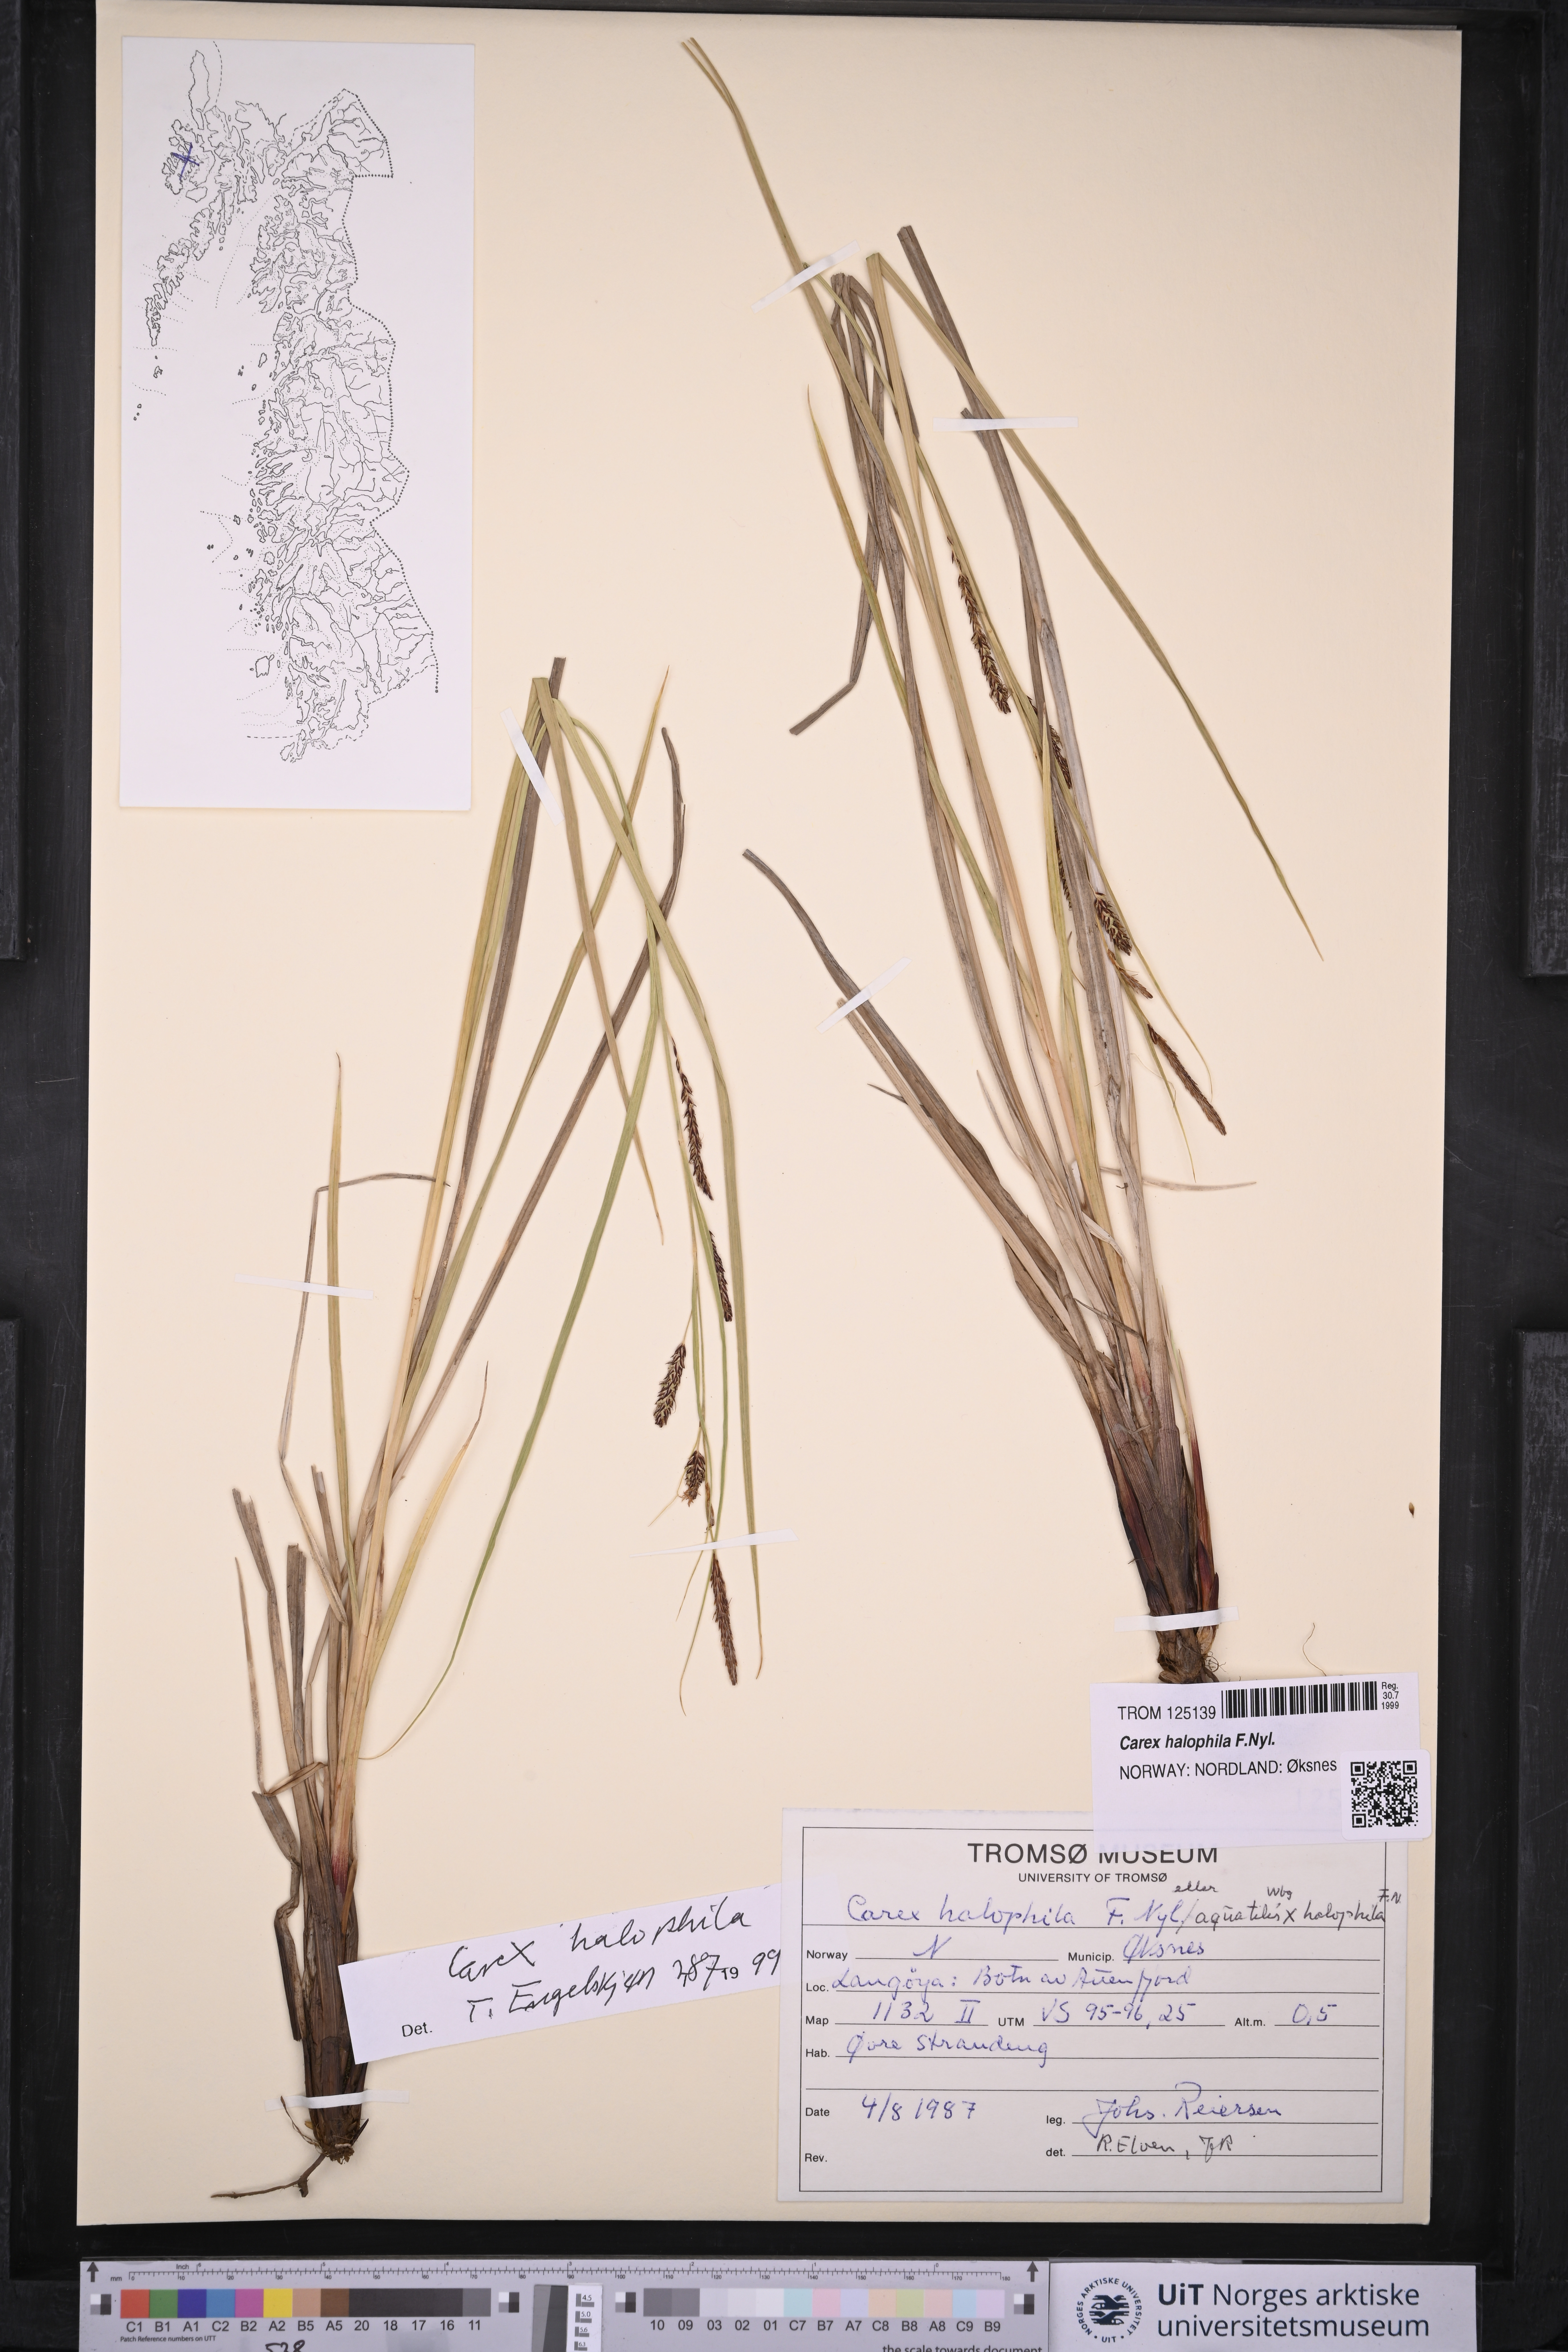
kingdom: Plantae
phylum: Tracheophyta
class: Liliopsida
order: Poales
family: Cyperaceae
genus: Carex
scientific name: Carex halophila
